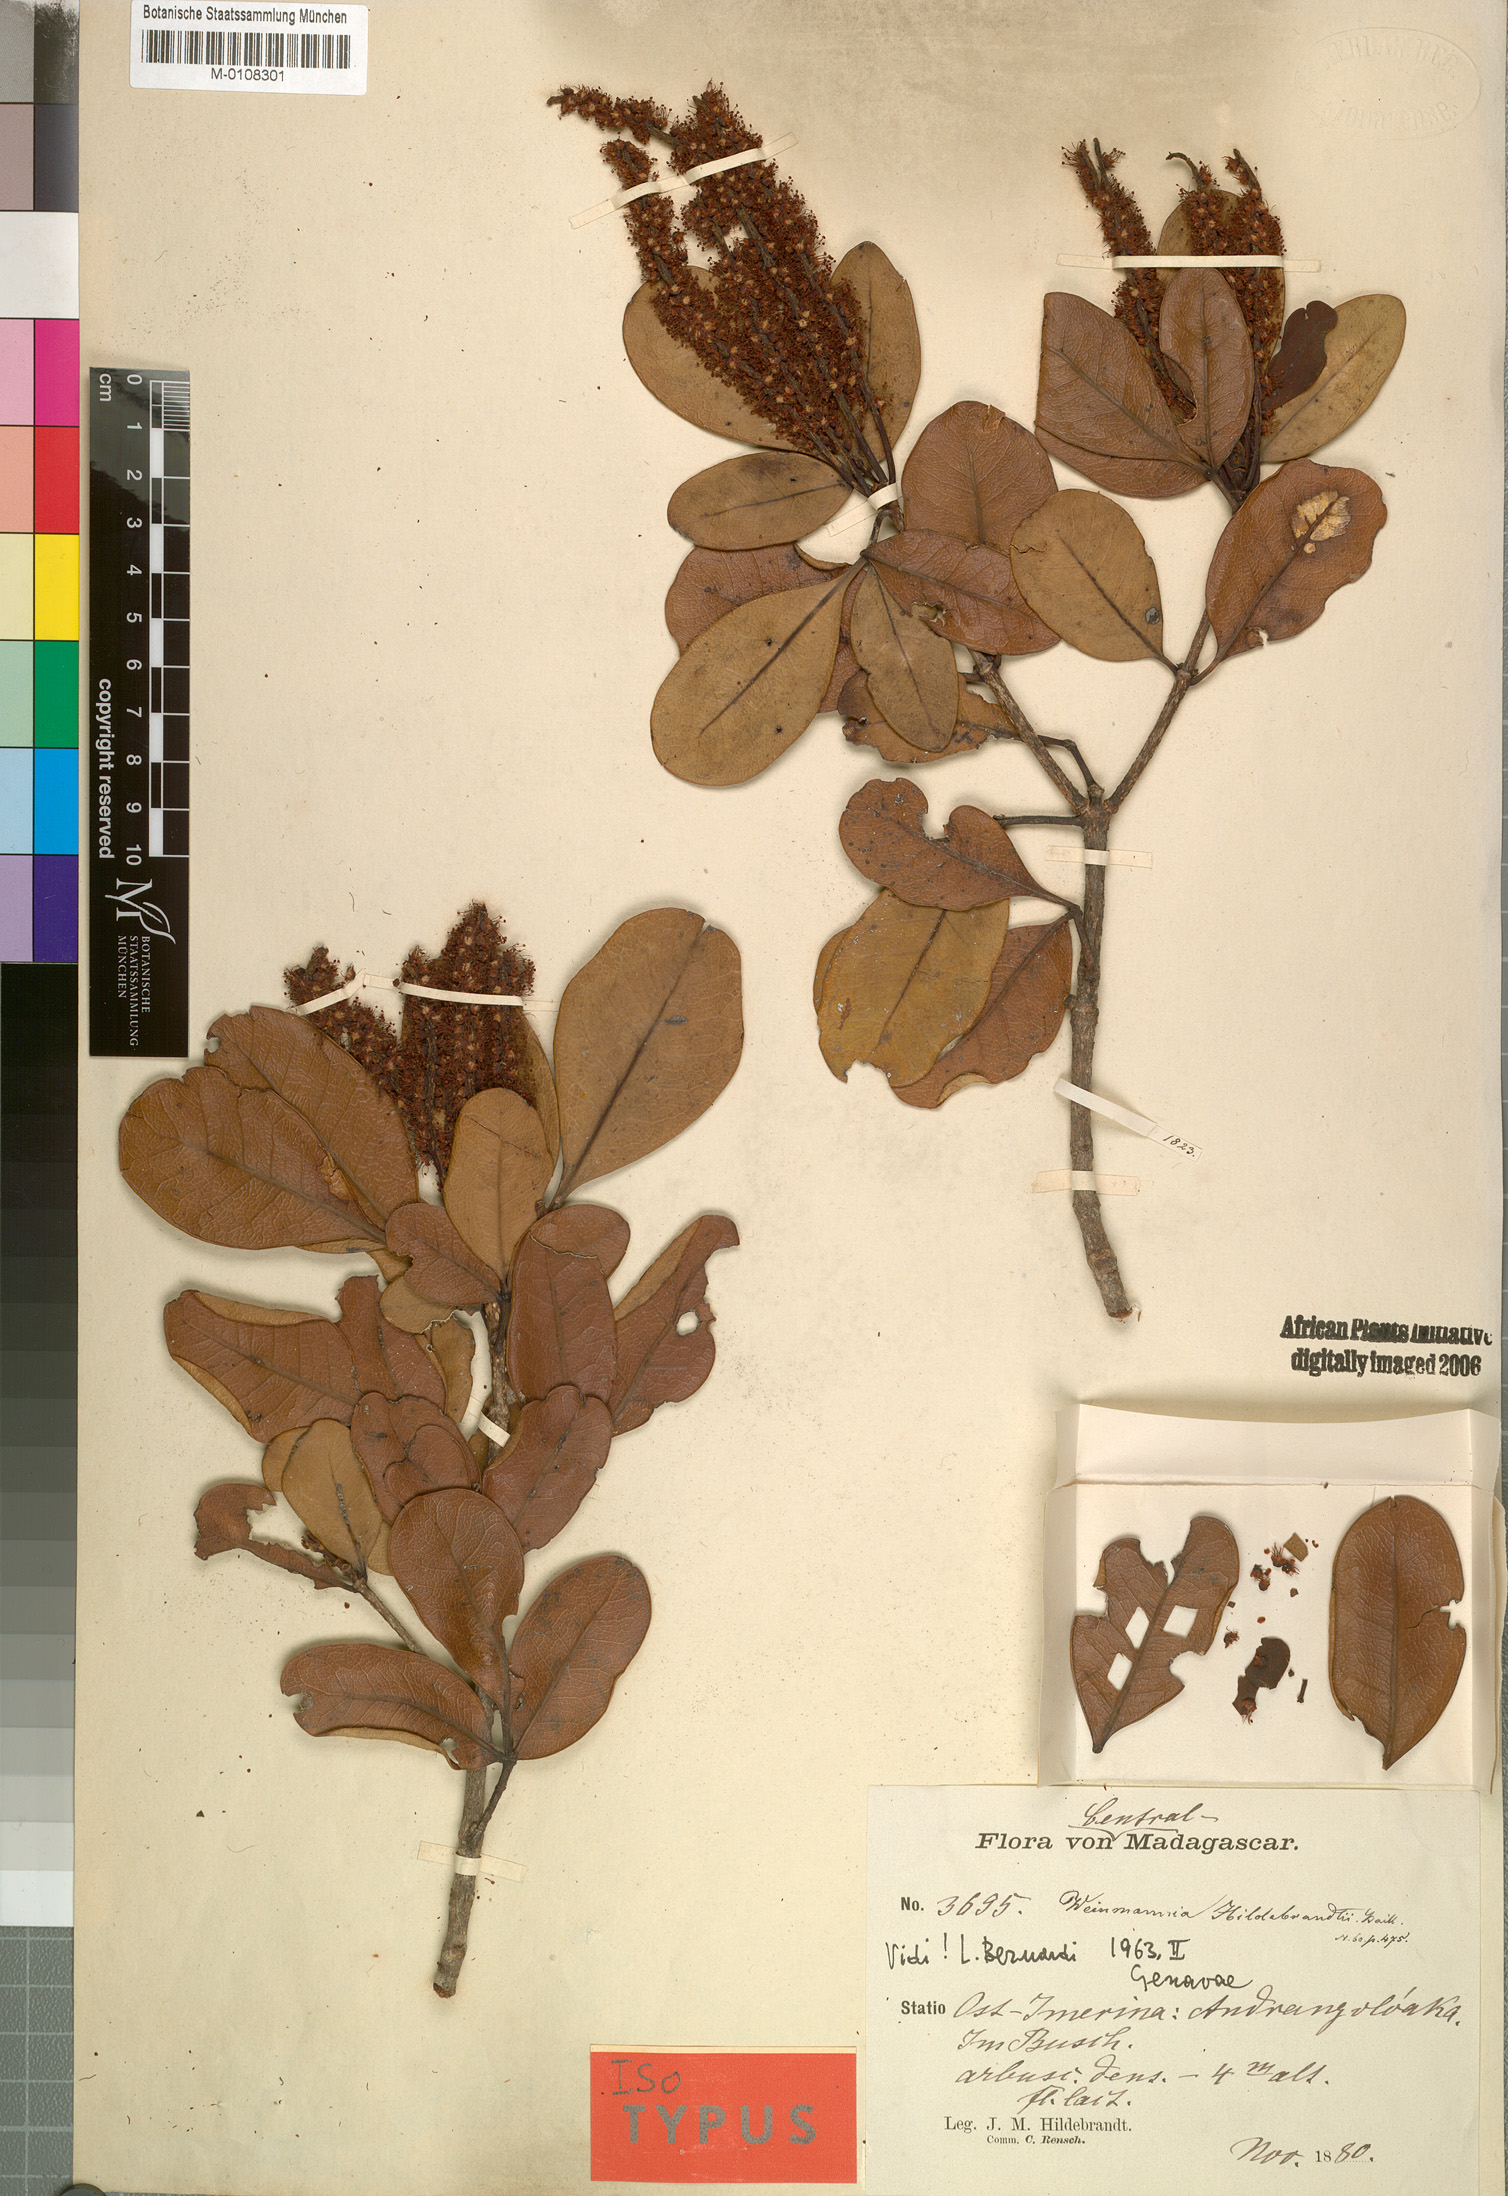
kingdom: Plantae
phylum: Tracheophyta
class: Magnoliopsida
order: Oxalidales
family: Cunoniaceae
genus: Pterophylla
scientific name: Pterophylla hildebrandtii
